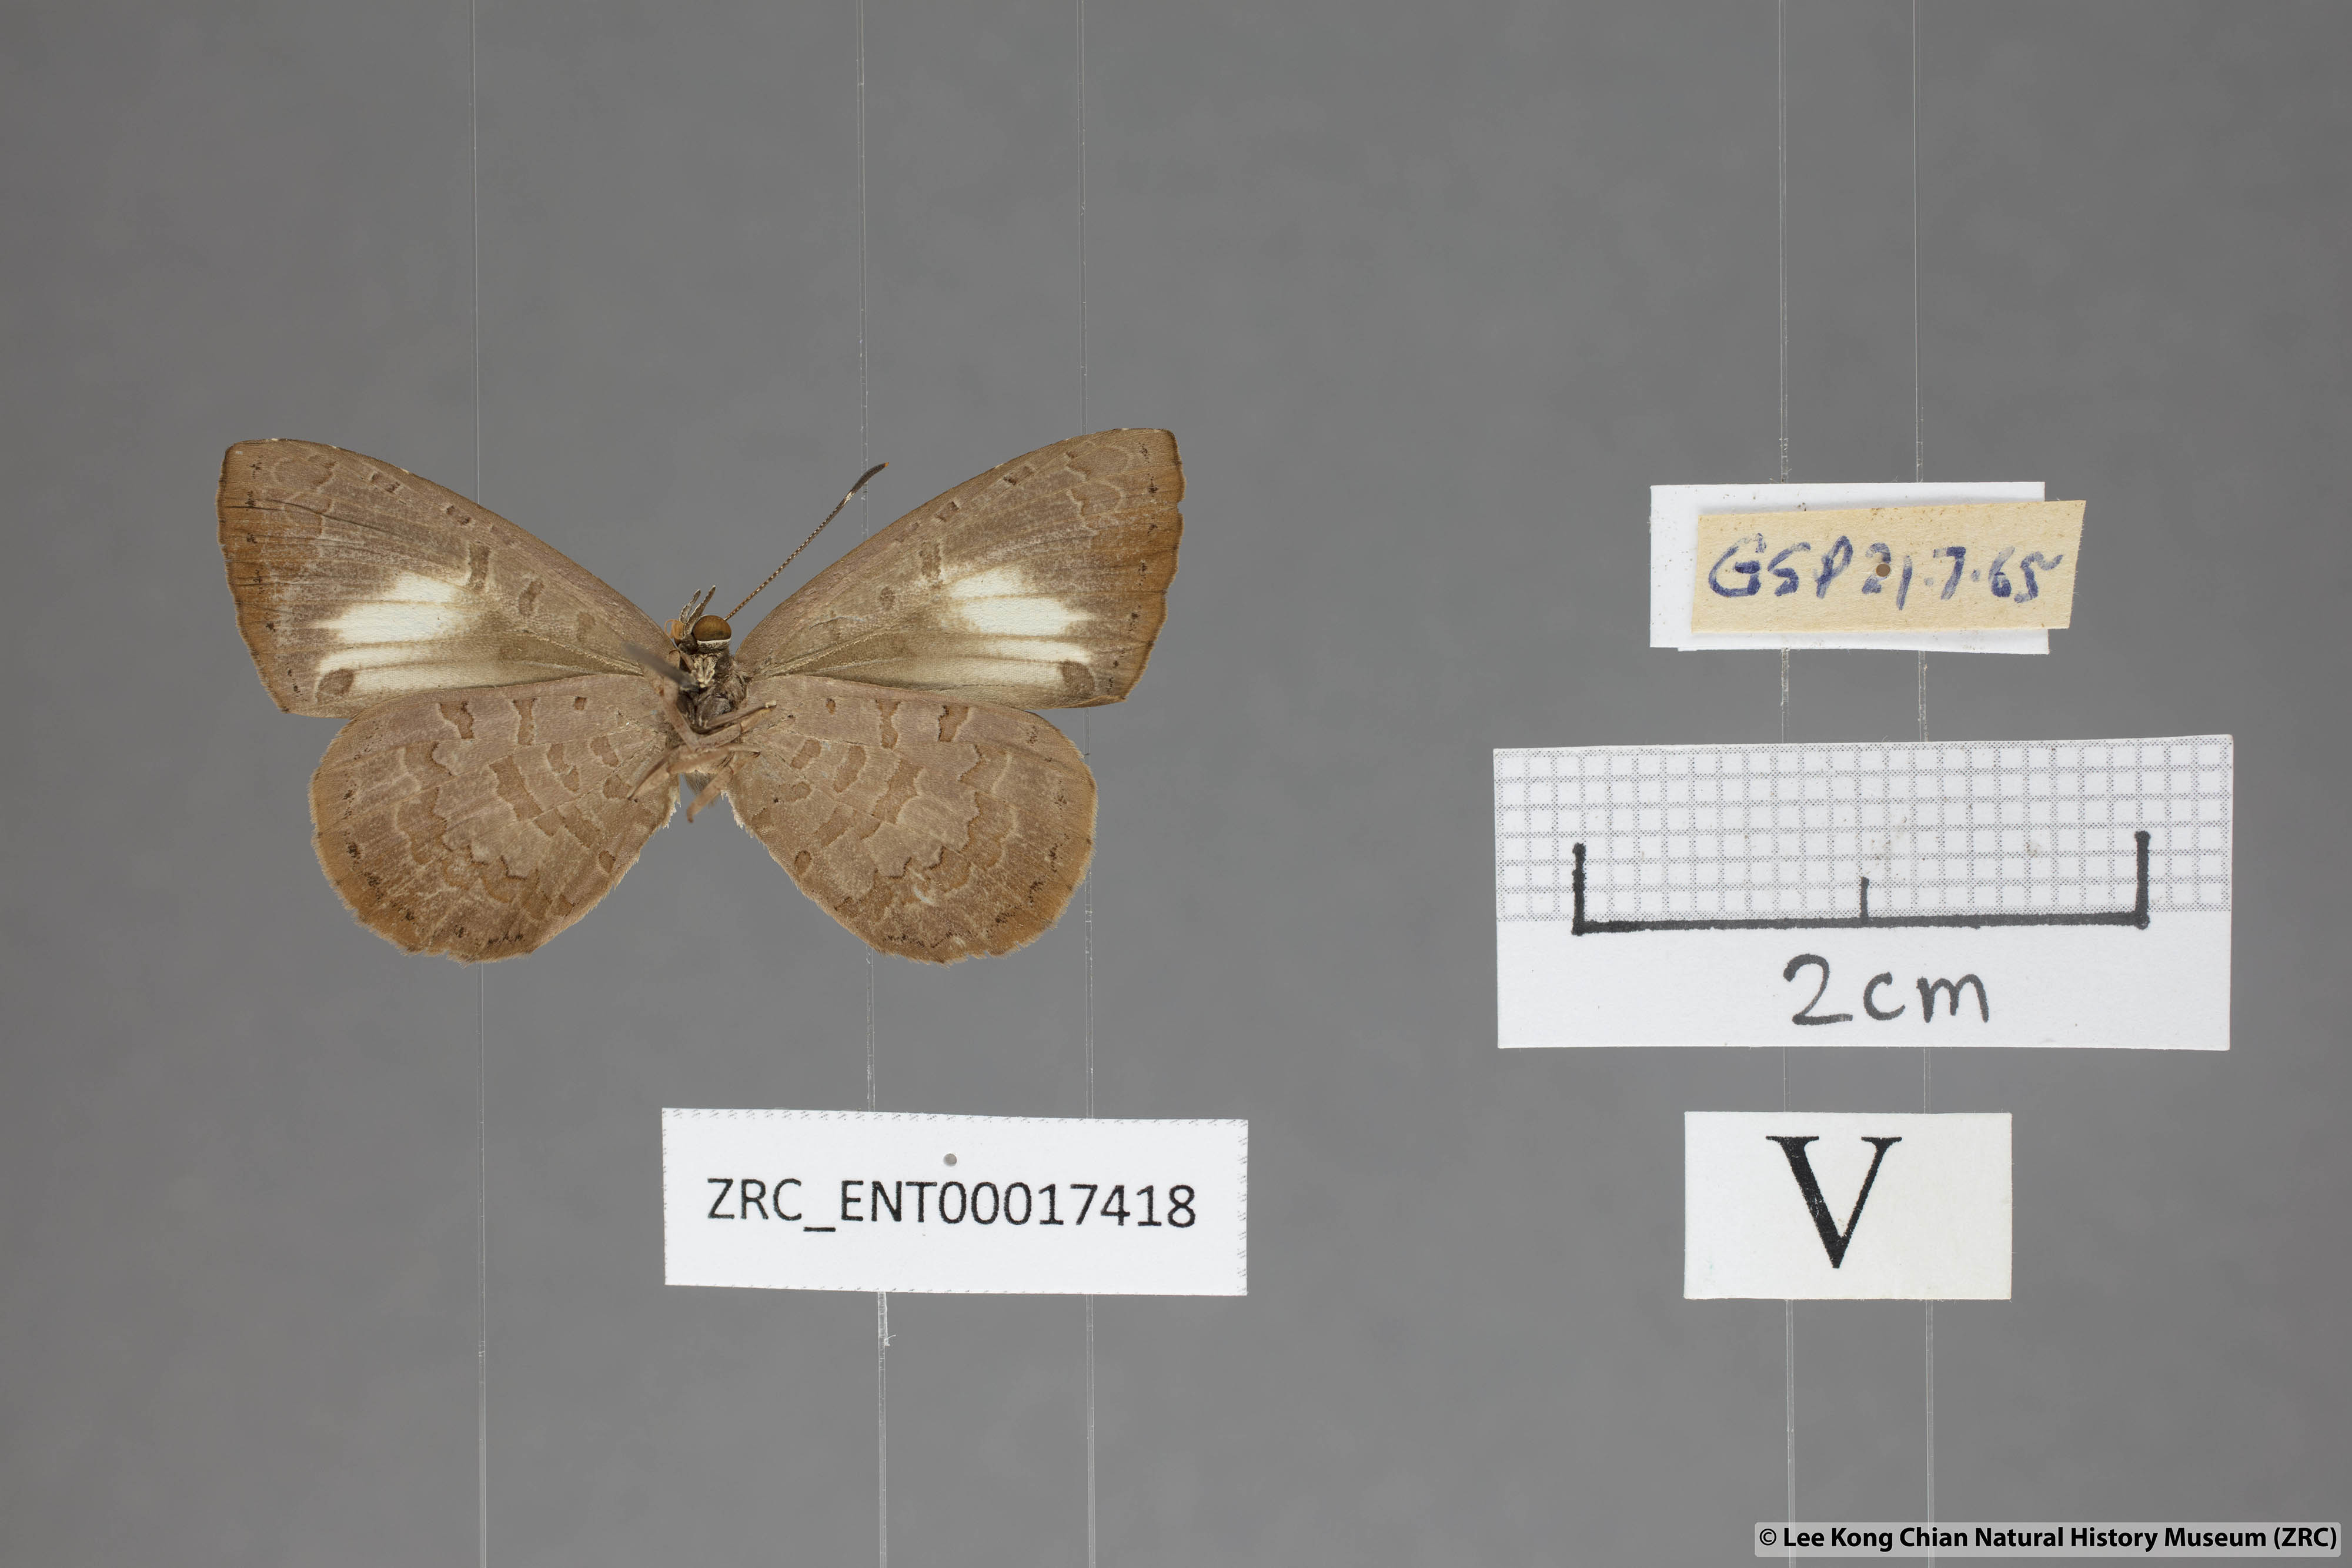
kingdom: Animalia
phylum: Arthropoda
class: Insecta
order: Lepidoptera
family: Lycaenidae
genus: Miletus
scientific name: Miletus biggsii
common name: Bigg's brownie
